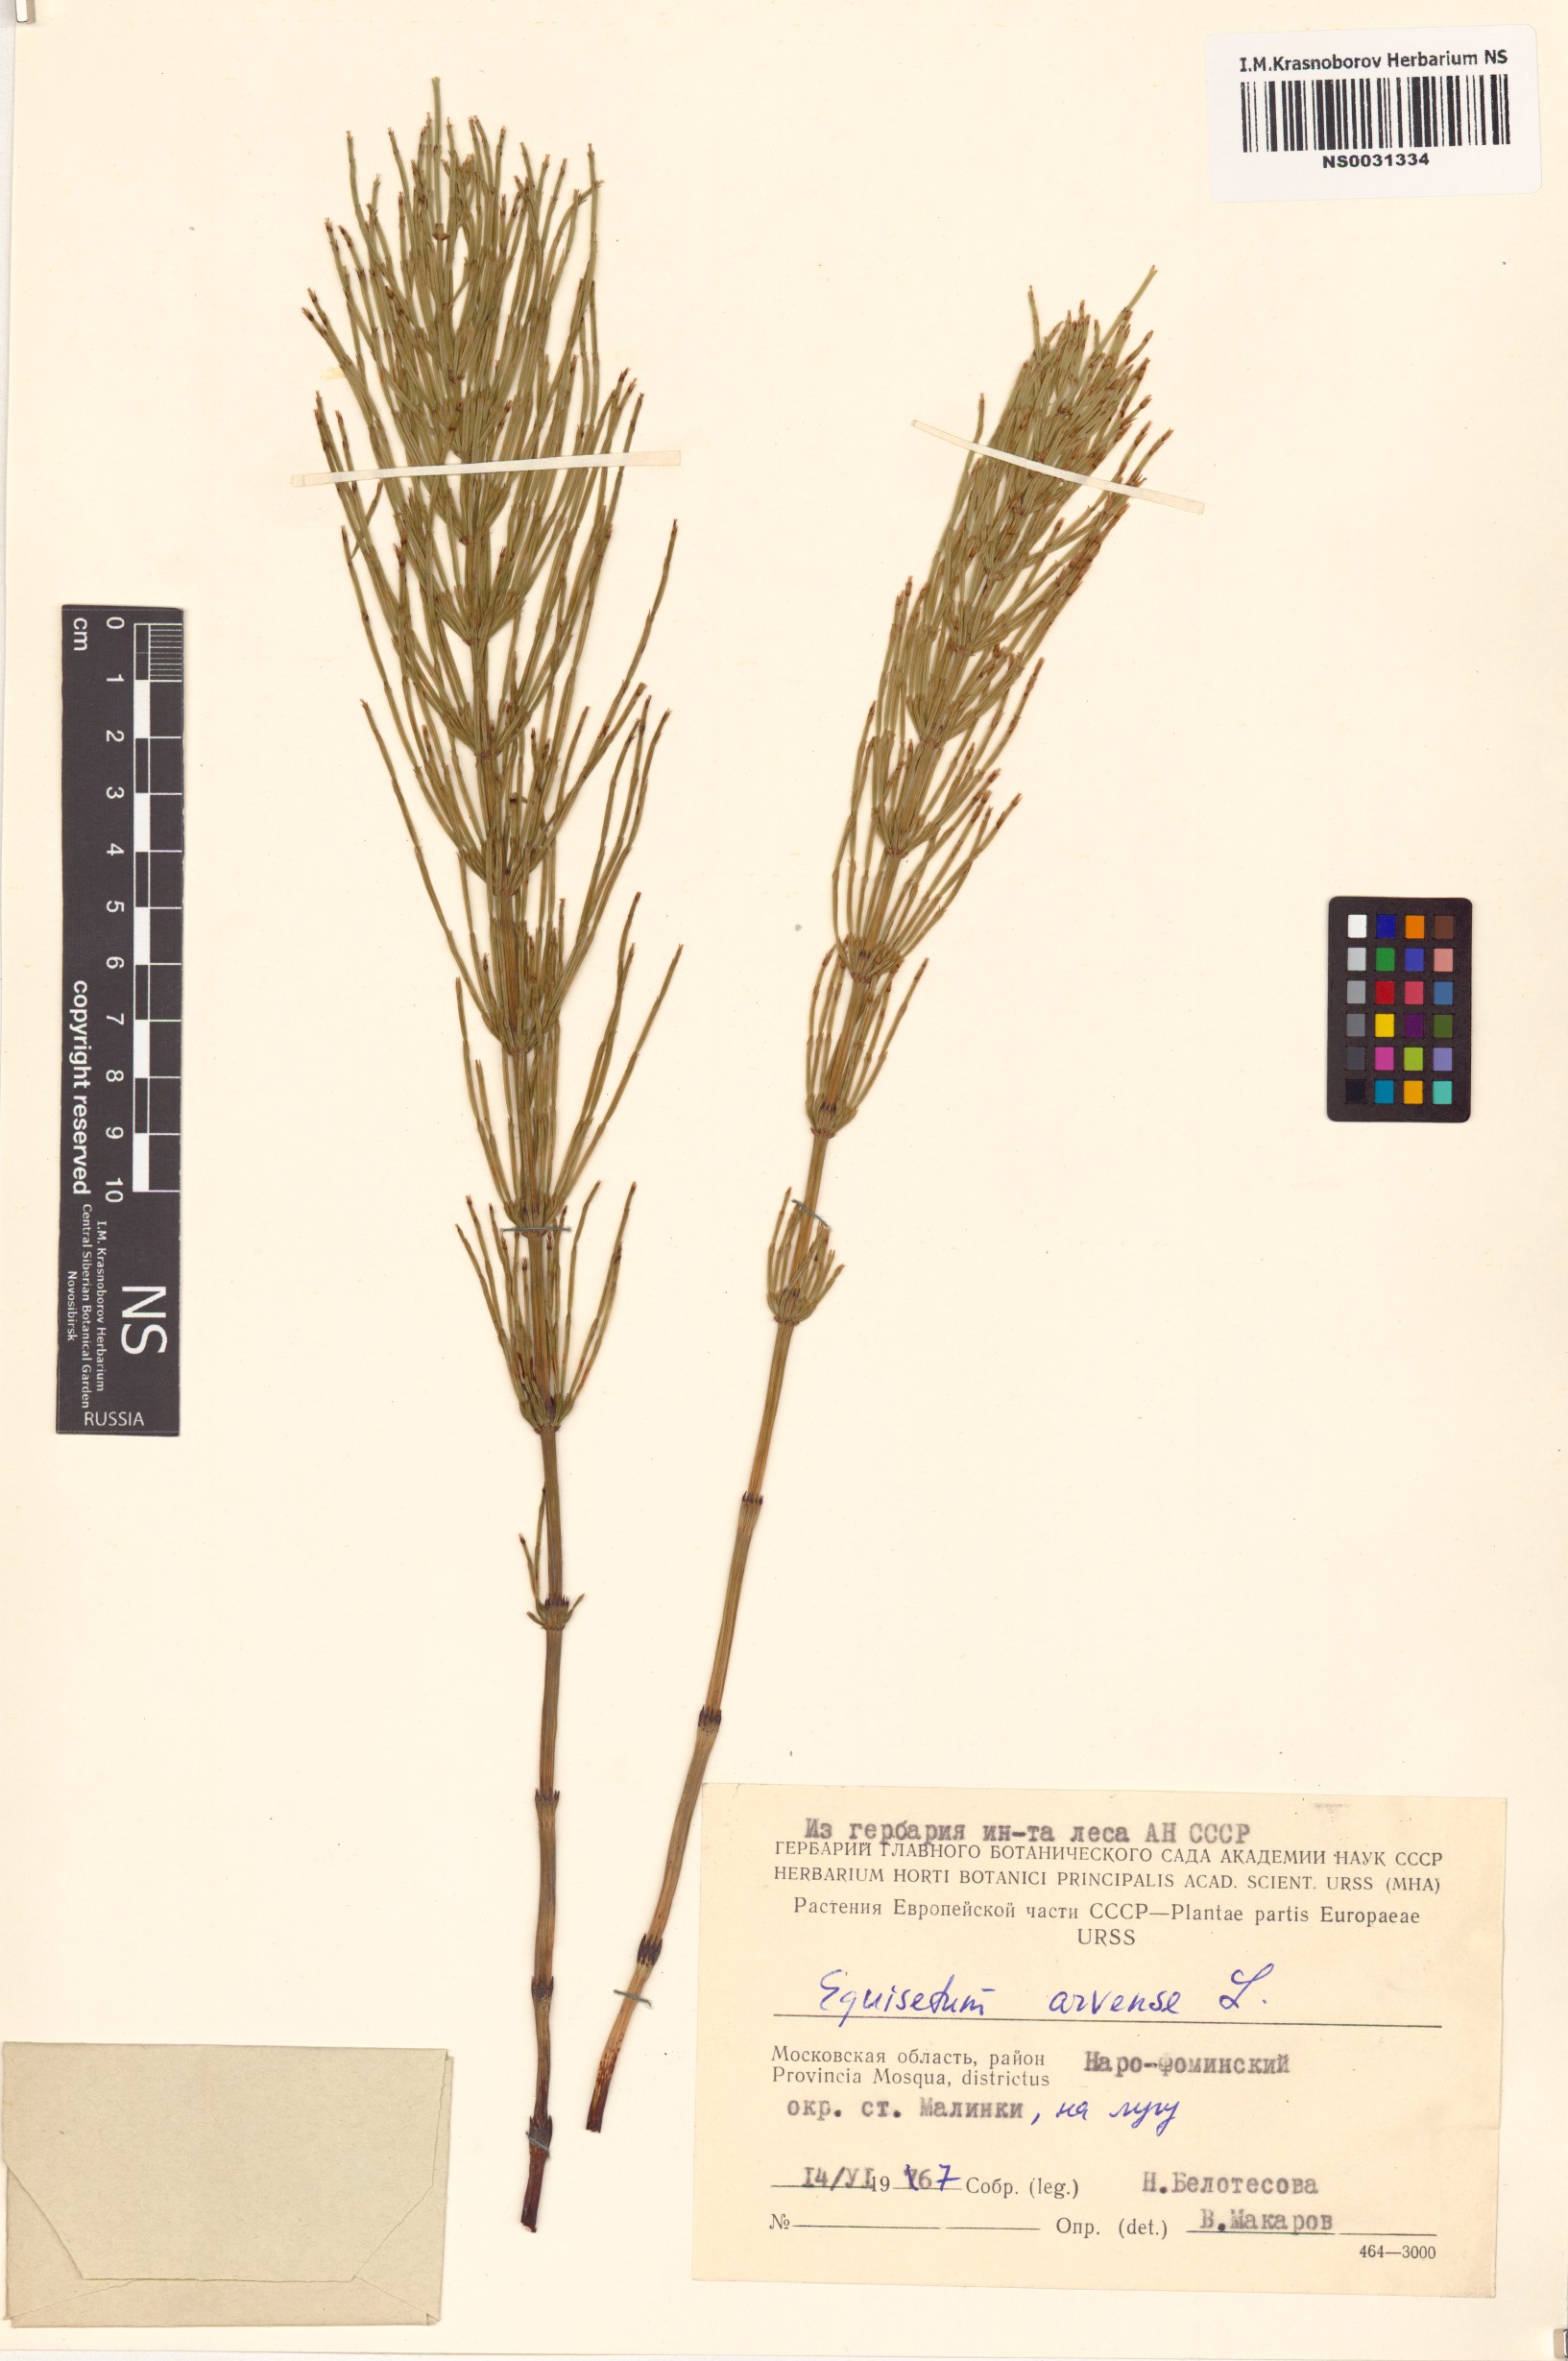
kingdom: Plantae
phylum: Tracheophyta
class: Polypodiopsida
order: Equisetales
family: Equisetaceae
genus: Equisetum
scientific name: Equisetum arvense
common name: Field horsetail
